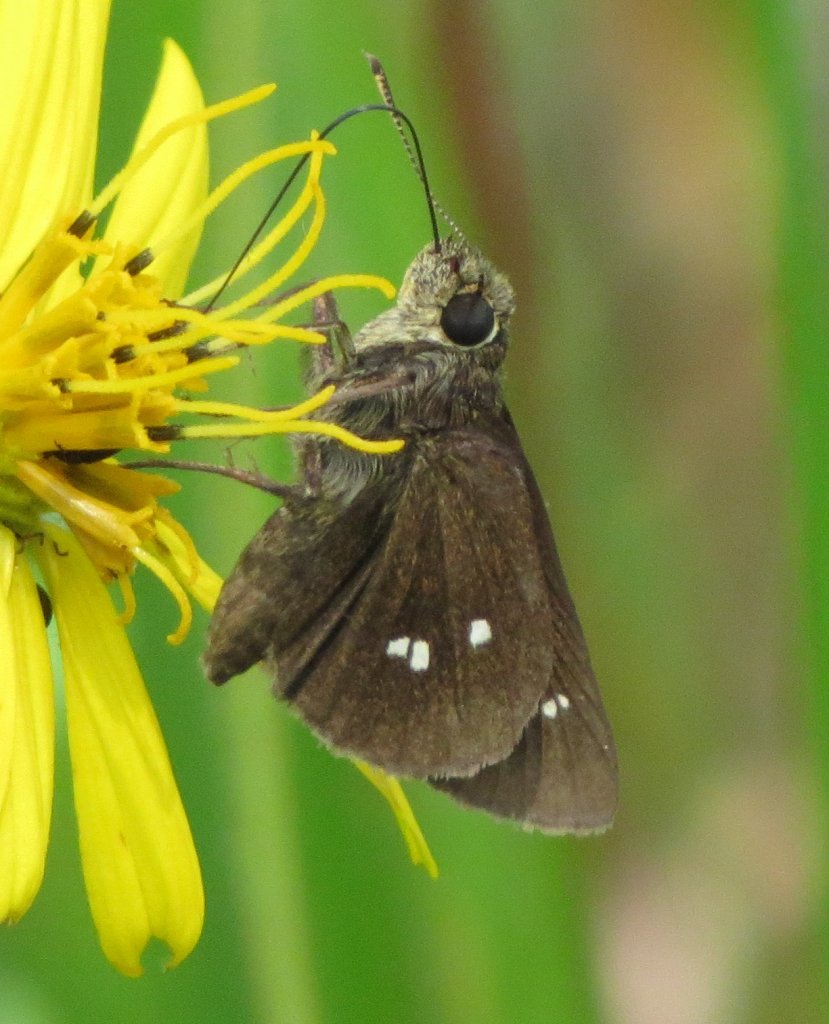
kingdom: Animalia
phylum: Arthropoda
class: Insecta
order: Lepidoptera
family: Hesperiidae
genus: Oligoria
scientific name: Oligoria maculata
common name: Twin-spot Skipper
